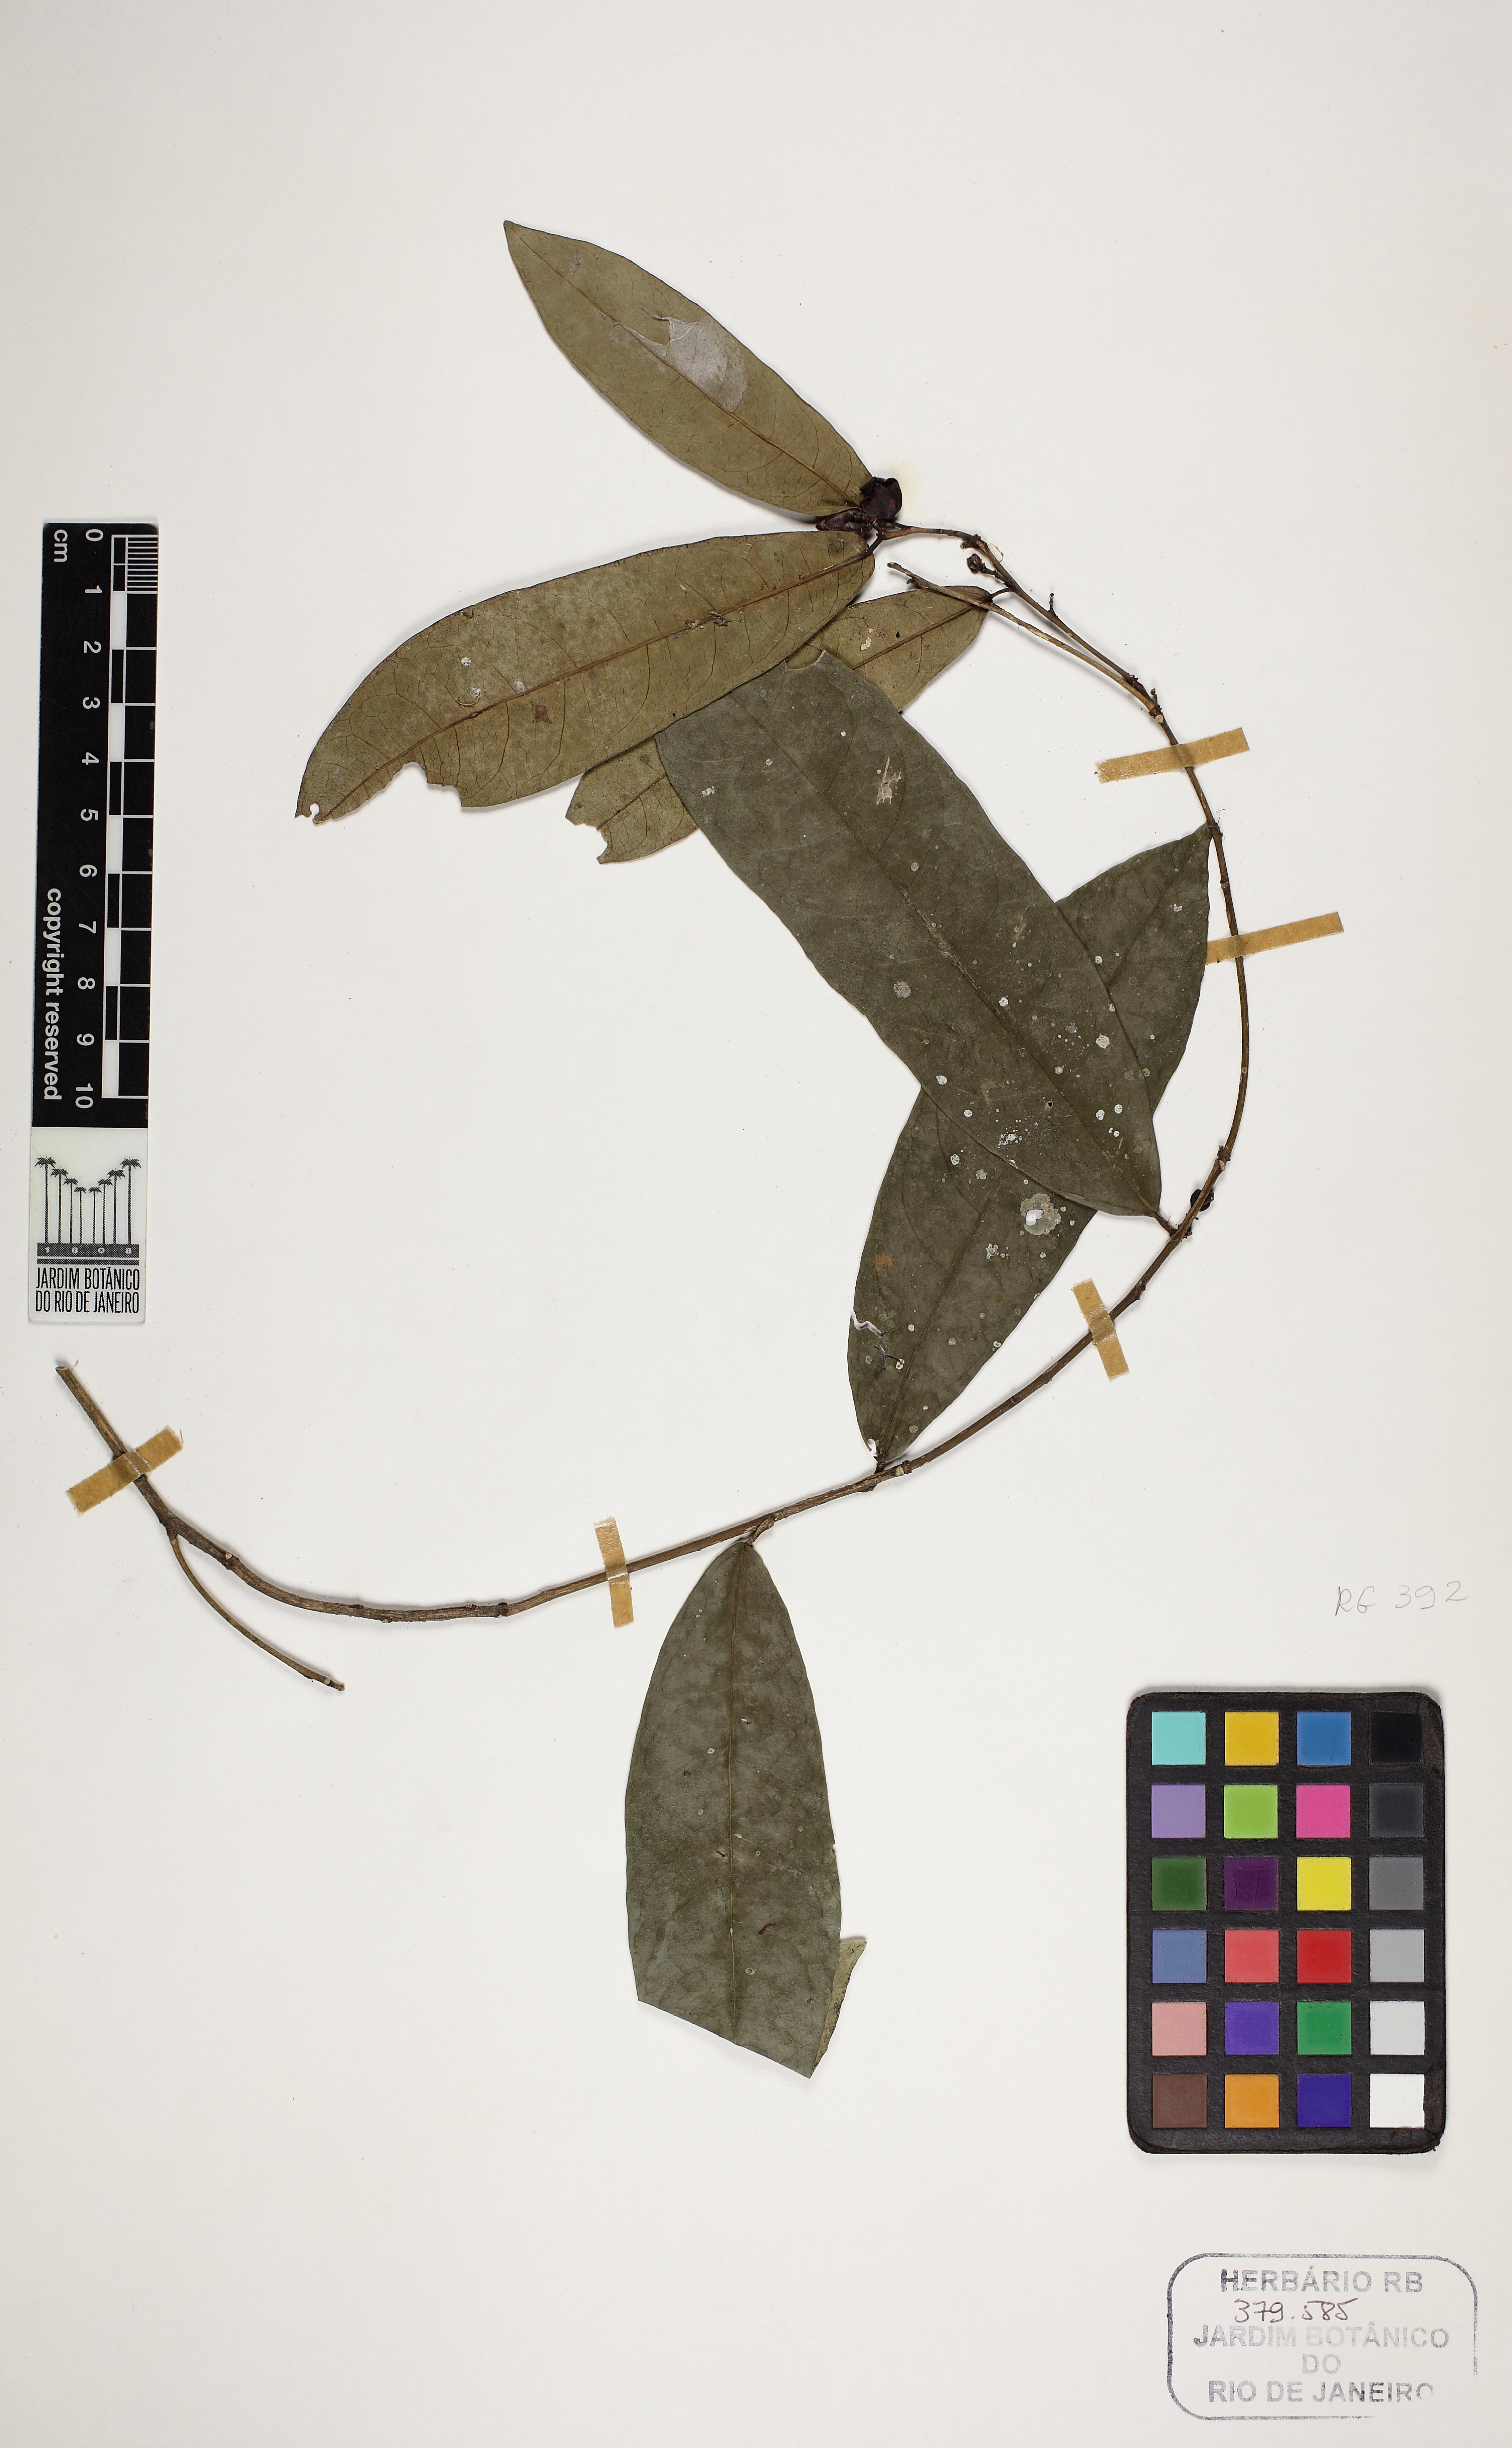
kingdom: Plantae
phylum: Tracheophyta
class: Magnoliopsida
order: Malpighiales
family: Euphorbiaceae
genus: Gymnanthes
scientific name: Gymnanthes glabrata
